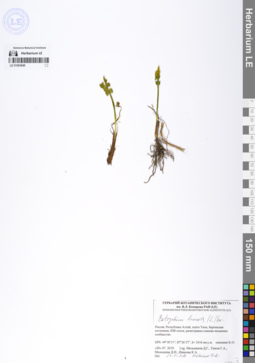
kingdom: Plantae
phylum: Tracheophyta
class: Polypodiopsida
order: Ophioglossales
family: Ophioglossaceae
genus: Botrychium
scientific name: Botrychium lunaria
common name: Moonwort
